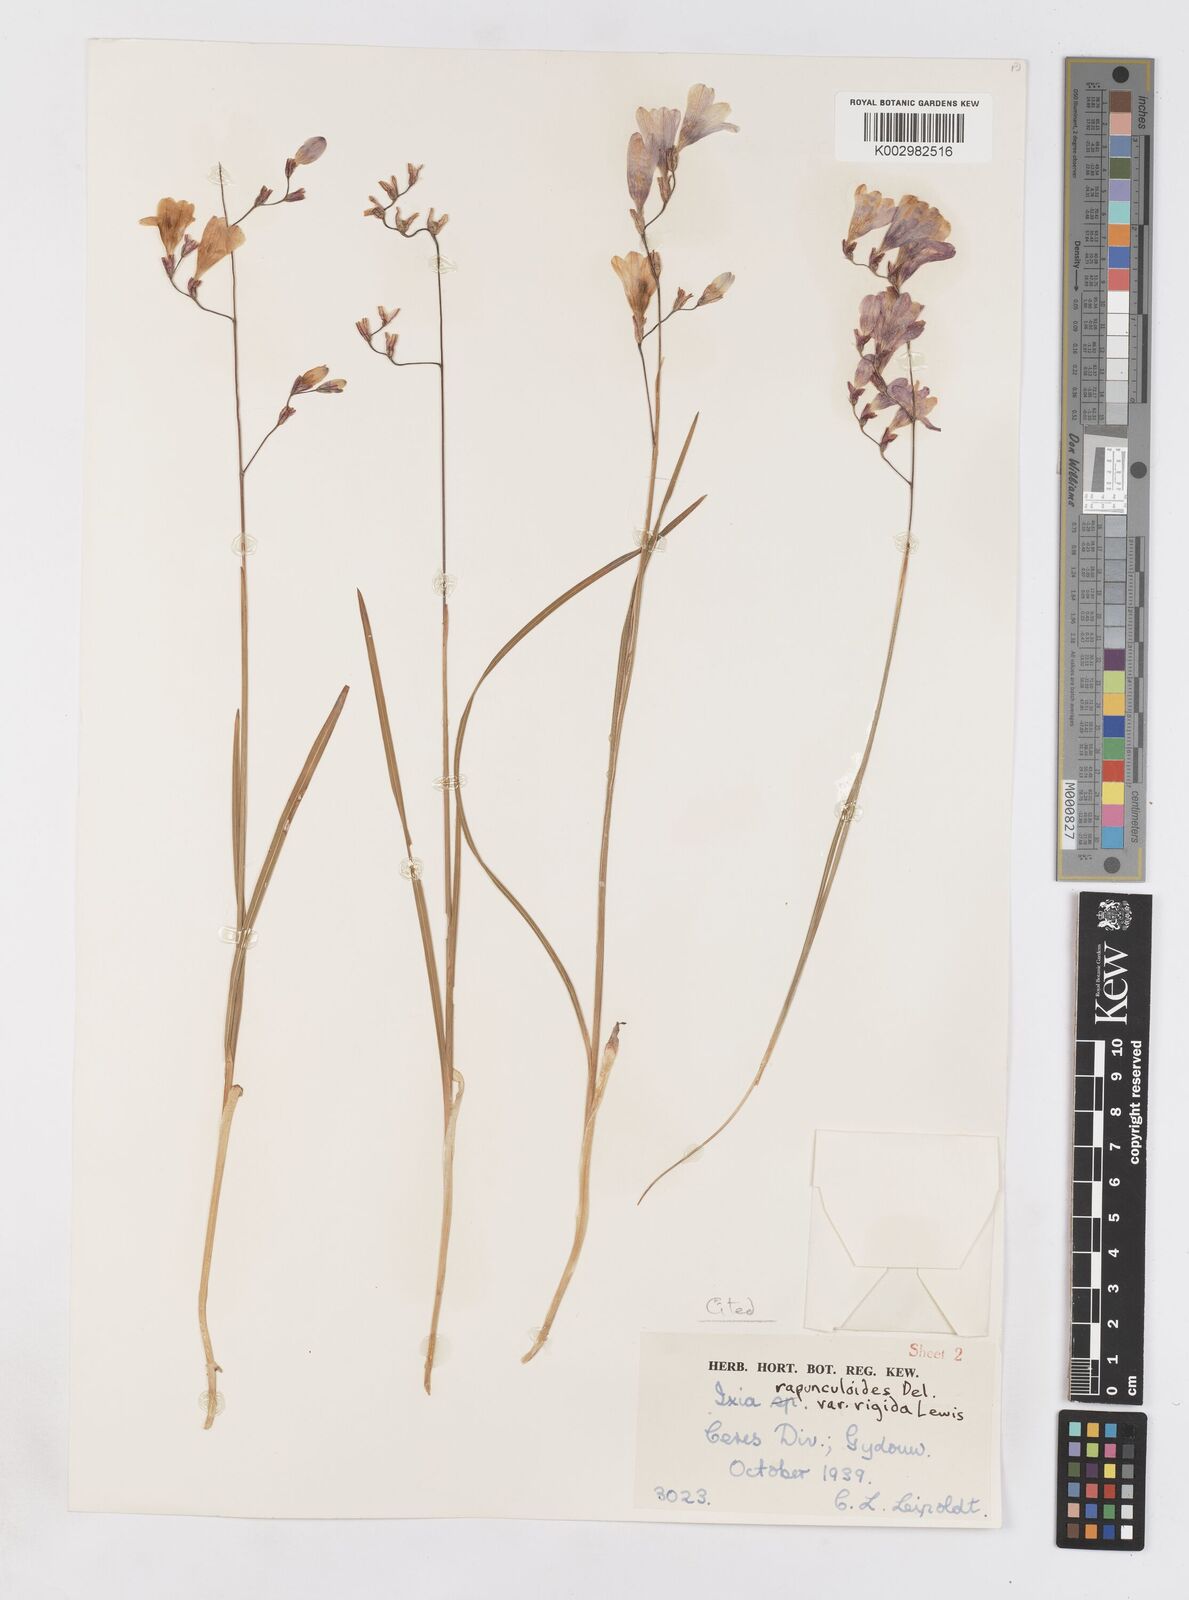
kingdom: Plantae
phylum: Tracheophyta
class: Liliopsida
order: Asparagales
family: Iridaceae
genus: Ixia
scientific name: Ixia rapunculoides
